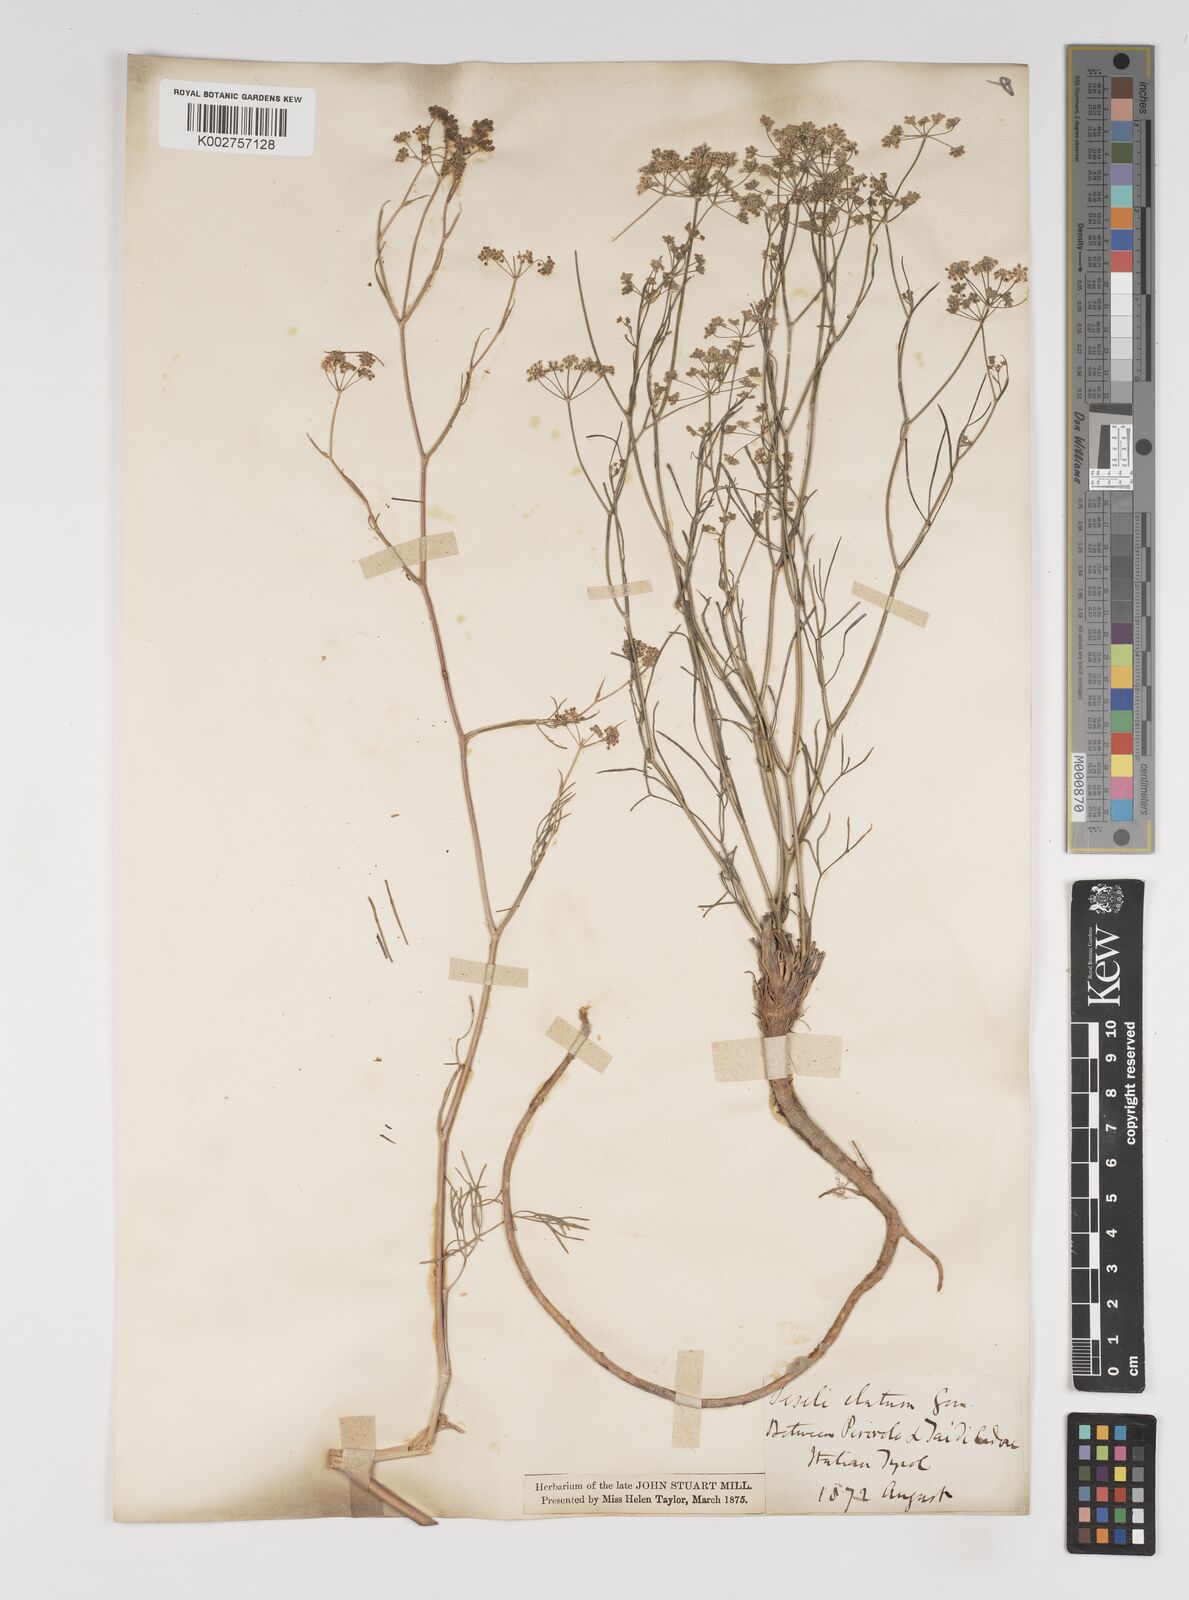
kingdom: Plantae
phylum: Tracheophyta
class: Magnoliopsida
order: Apiales
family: Apiaceae
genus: Seseli
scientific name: Seseli longifolium
